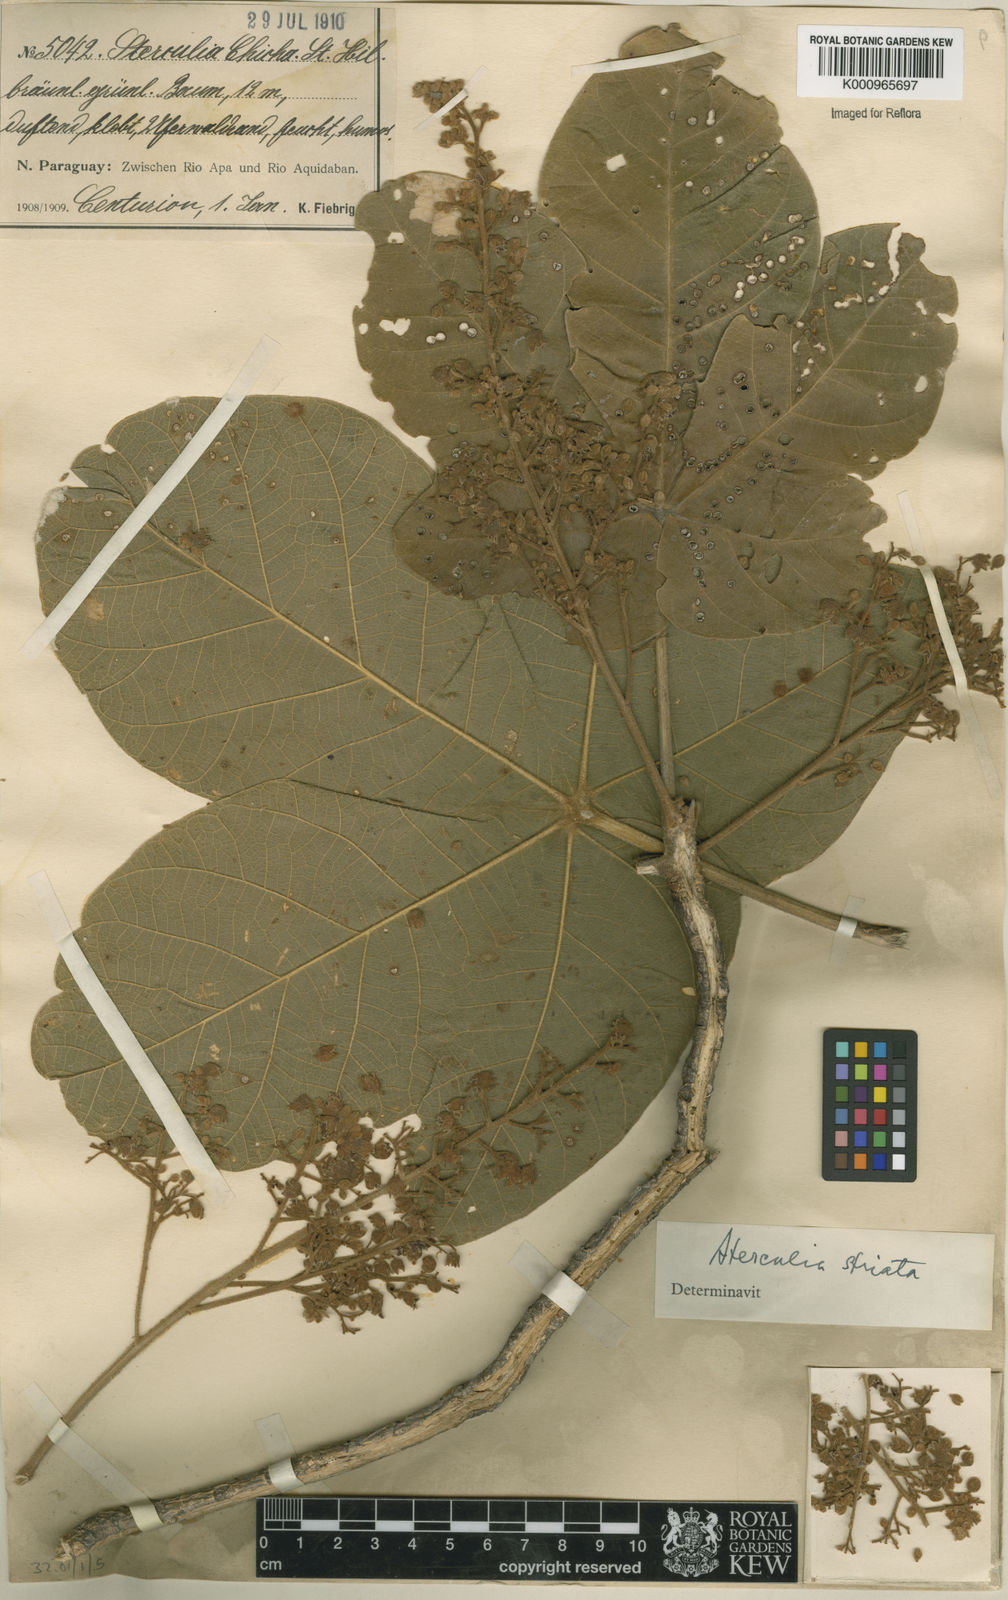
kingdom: Plantae
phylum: Tracheophyta
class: Magnoliopsida
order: Malvales
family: Malvaceae
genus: Sterculia
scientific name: Sterculia apetala
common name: Panama tree
